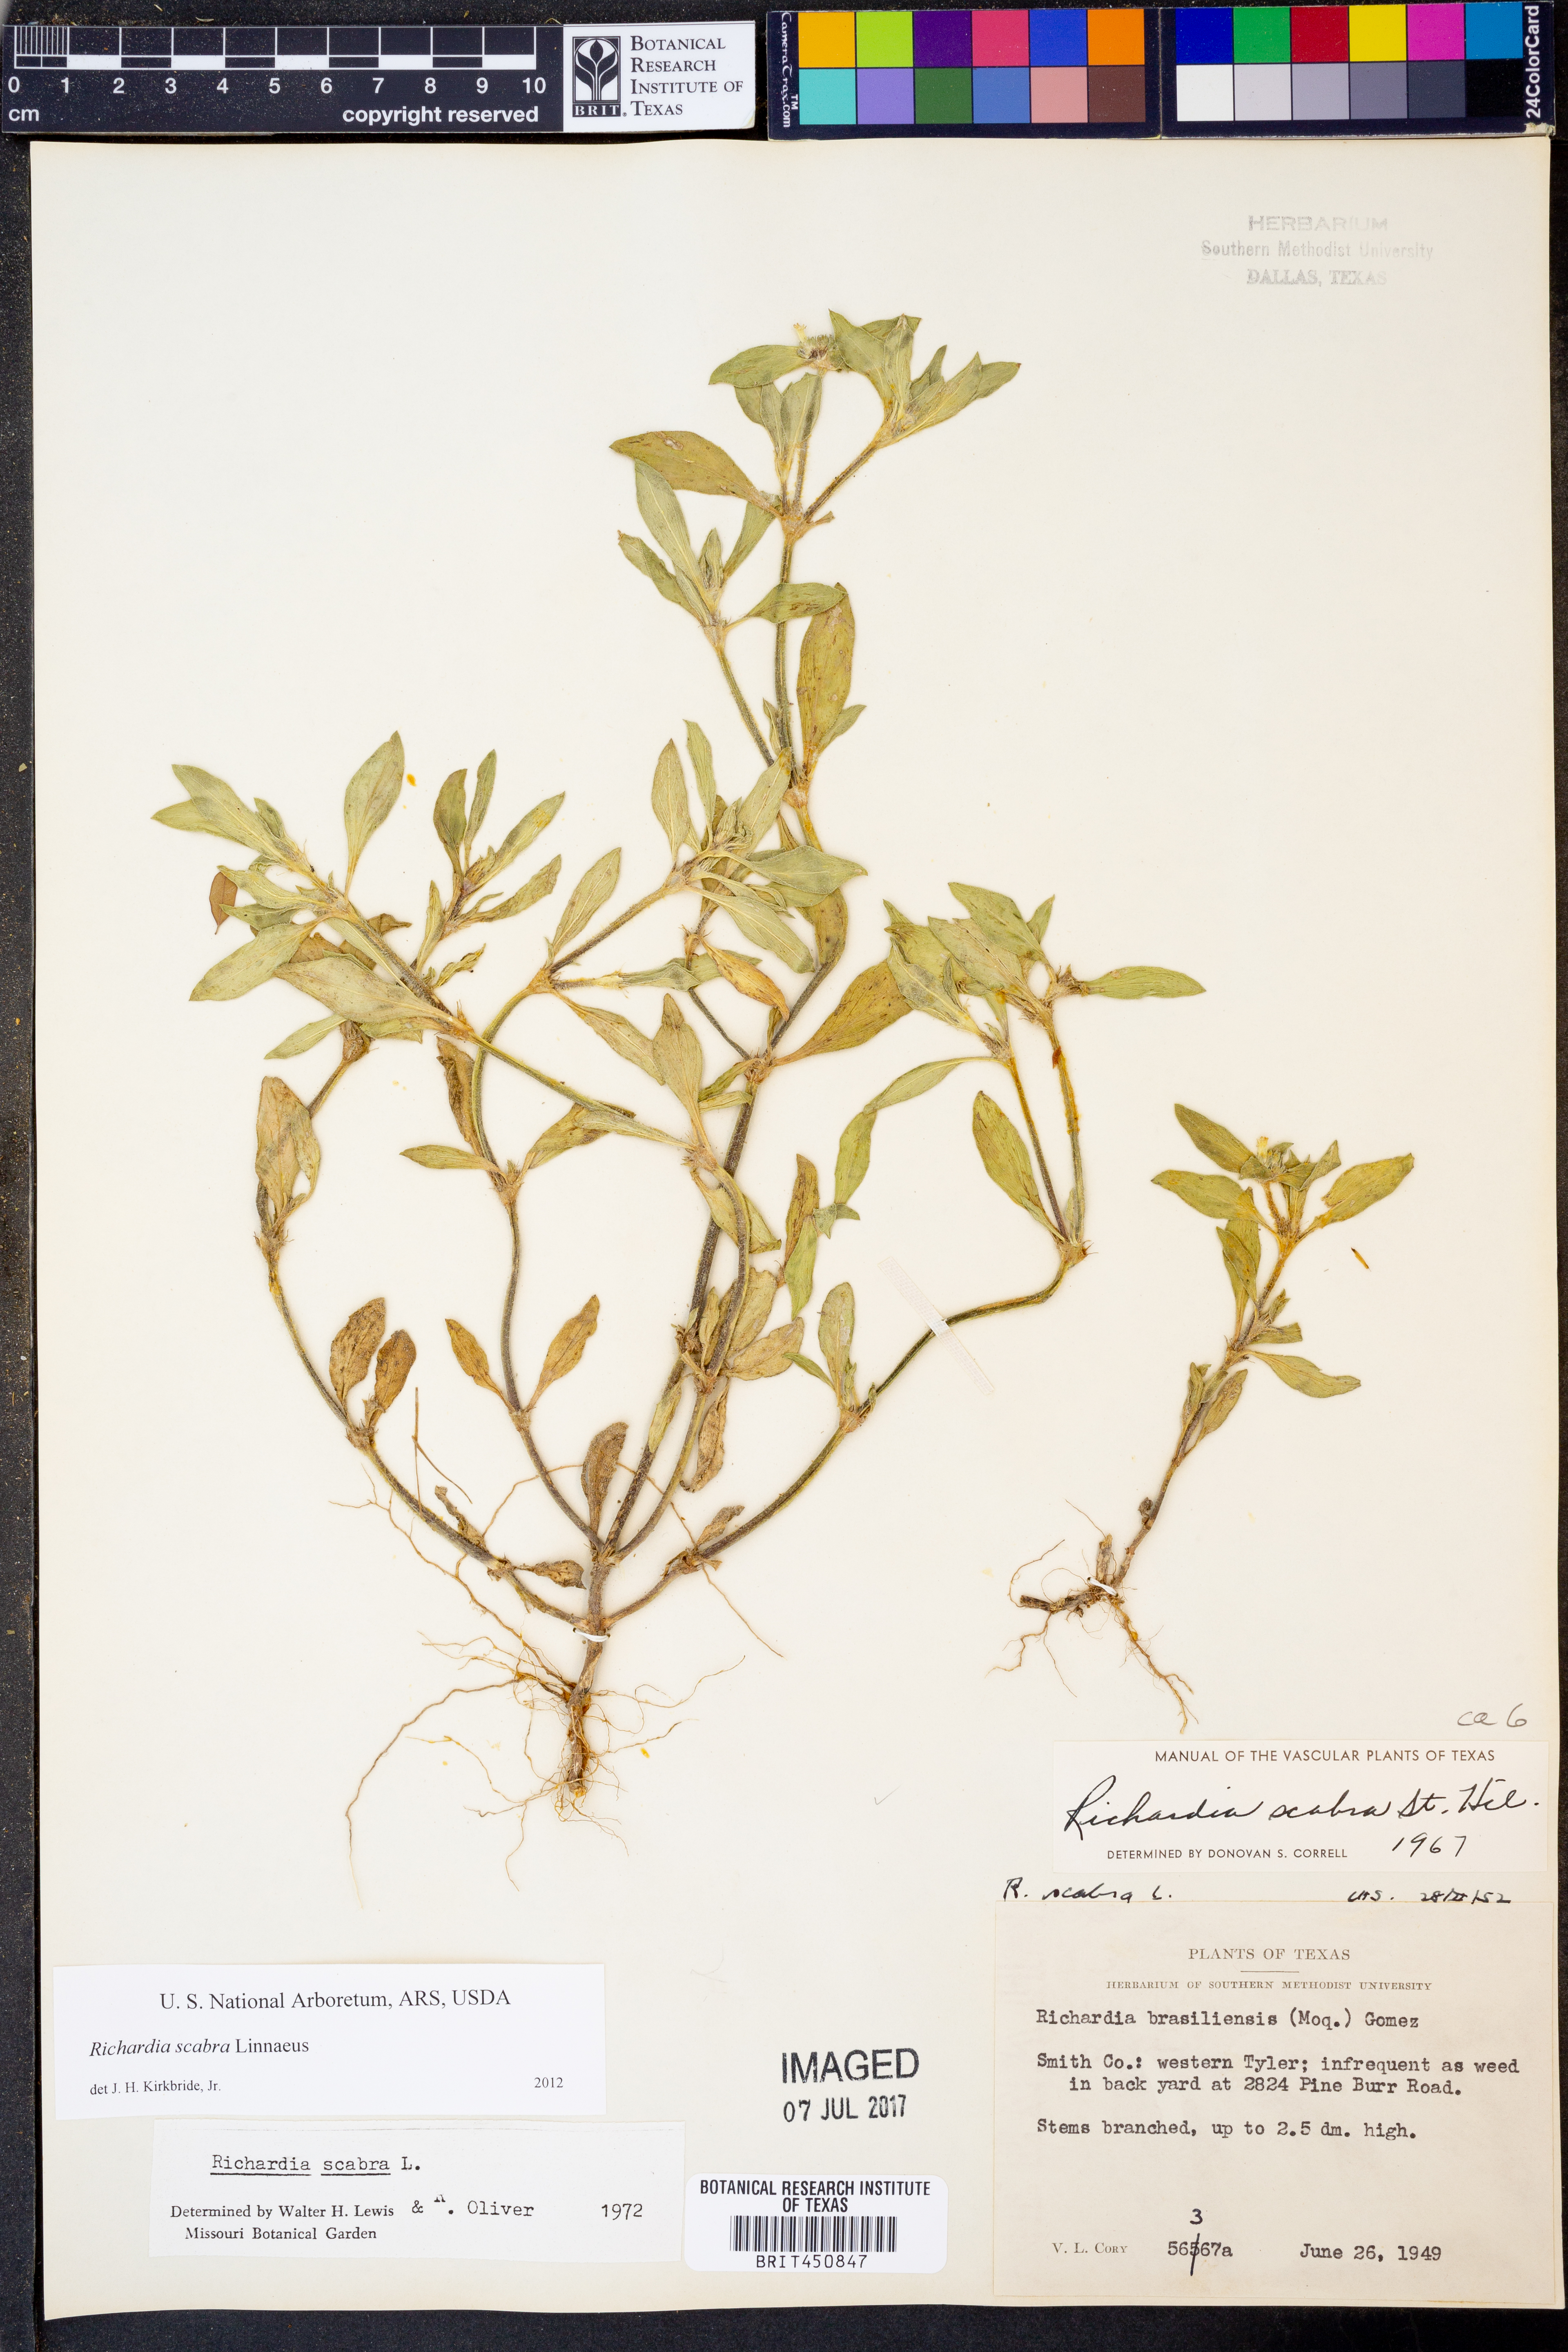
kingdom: Plantae
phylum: Tracheophyta
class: Magnoliopsida
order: Gentianales
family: Rubiaceae
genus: Richardia
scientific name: Richardia scabra
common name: Rough mexican clover
